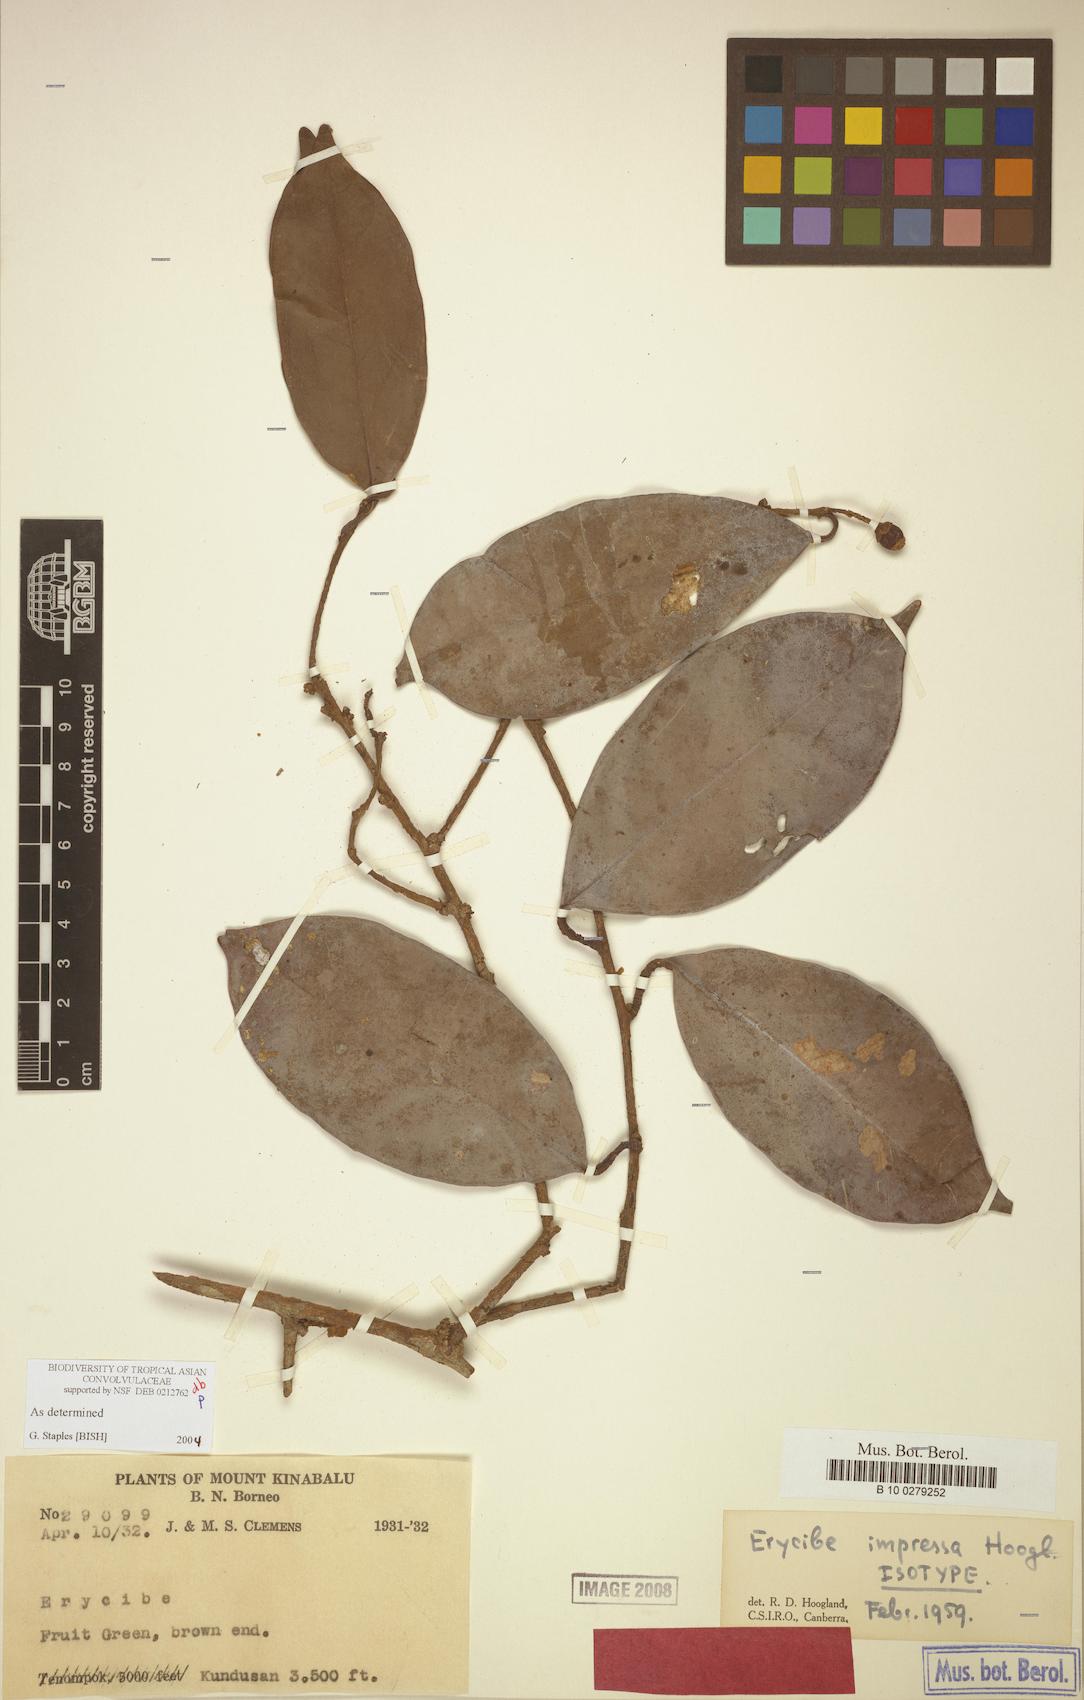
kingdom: Plantae
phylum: Tracheophyta
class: Magnoliopsida
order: Solanales
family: Convolvulaceae
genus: Erycibe
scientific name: Erycibe impressa
